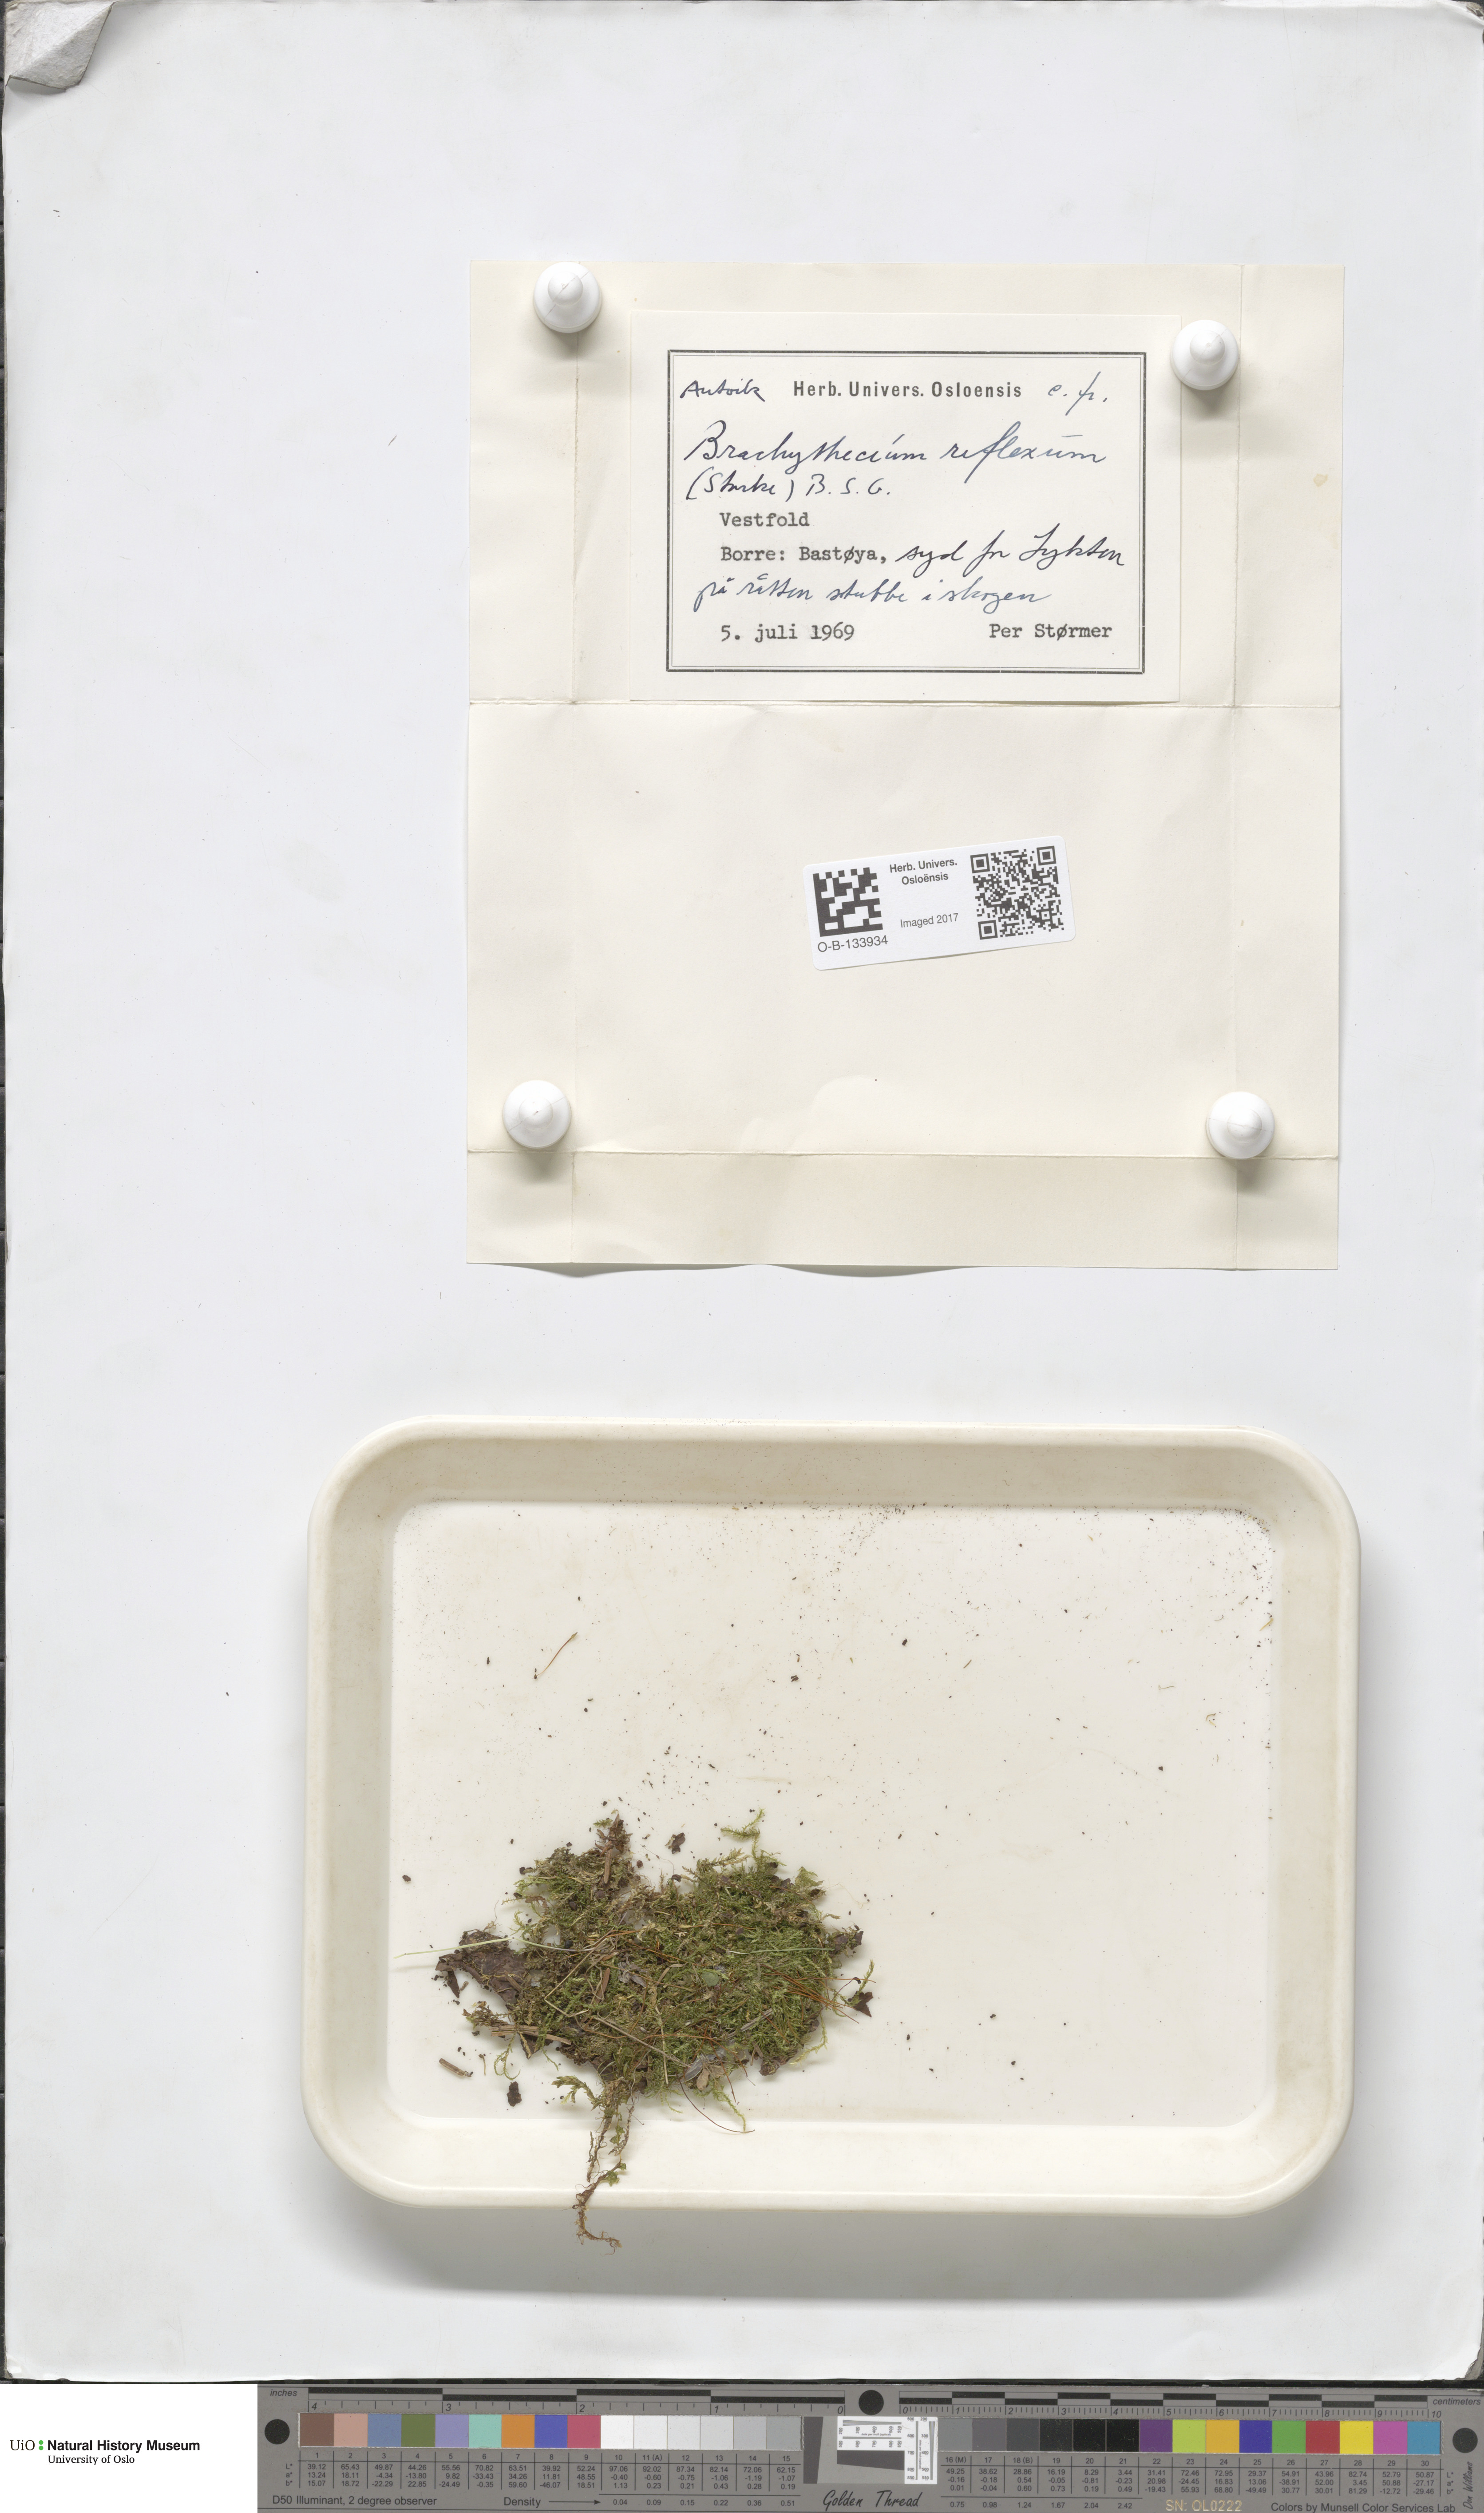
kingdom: Plantae
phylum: Bryophyta
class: Bryopsida
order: Hypnales
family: Brachytheciaceae
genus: Sciuro-hypnum
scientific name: Sciuro-hypnum reflexum
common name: Reflexed feather-moss
